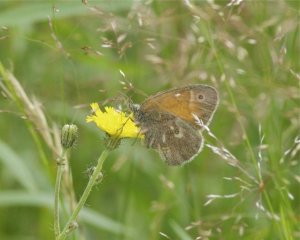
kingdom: Animalia
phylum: Arthropoda
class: Insecta
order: Lepidoptera
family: Nymphalidae
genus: Coenonympha
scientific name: Coenonympha tullia
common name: Large Heath
